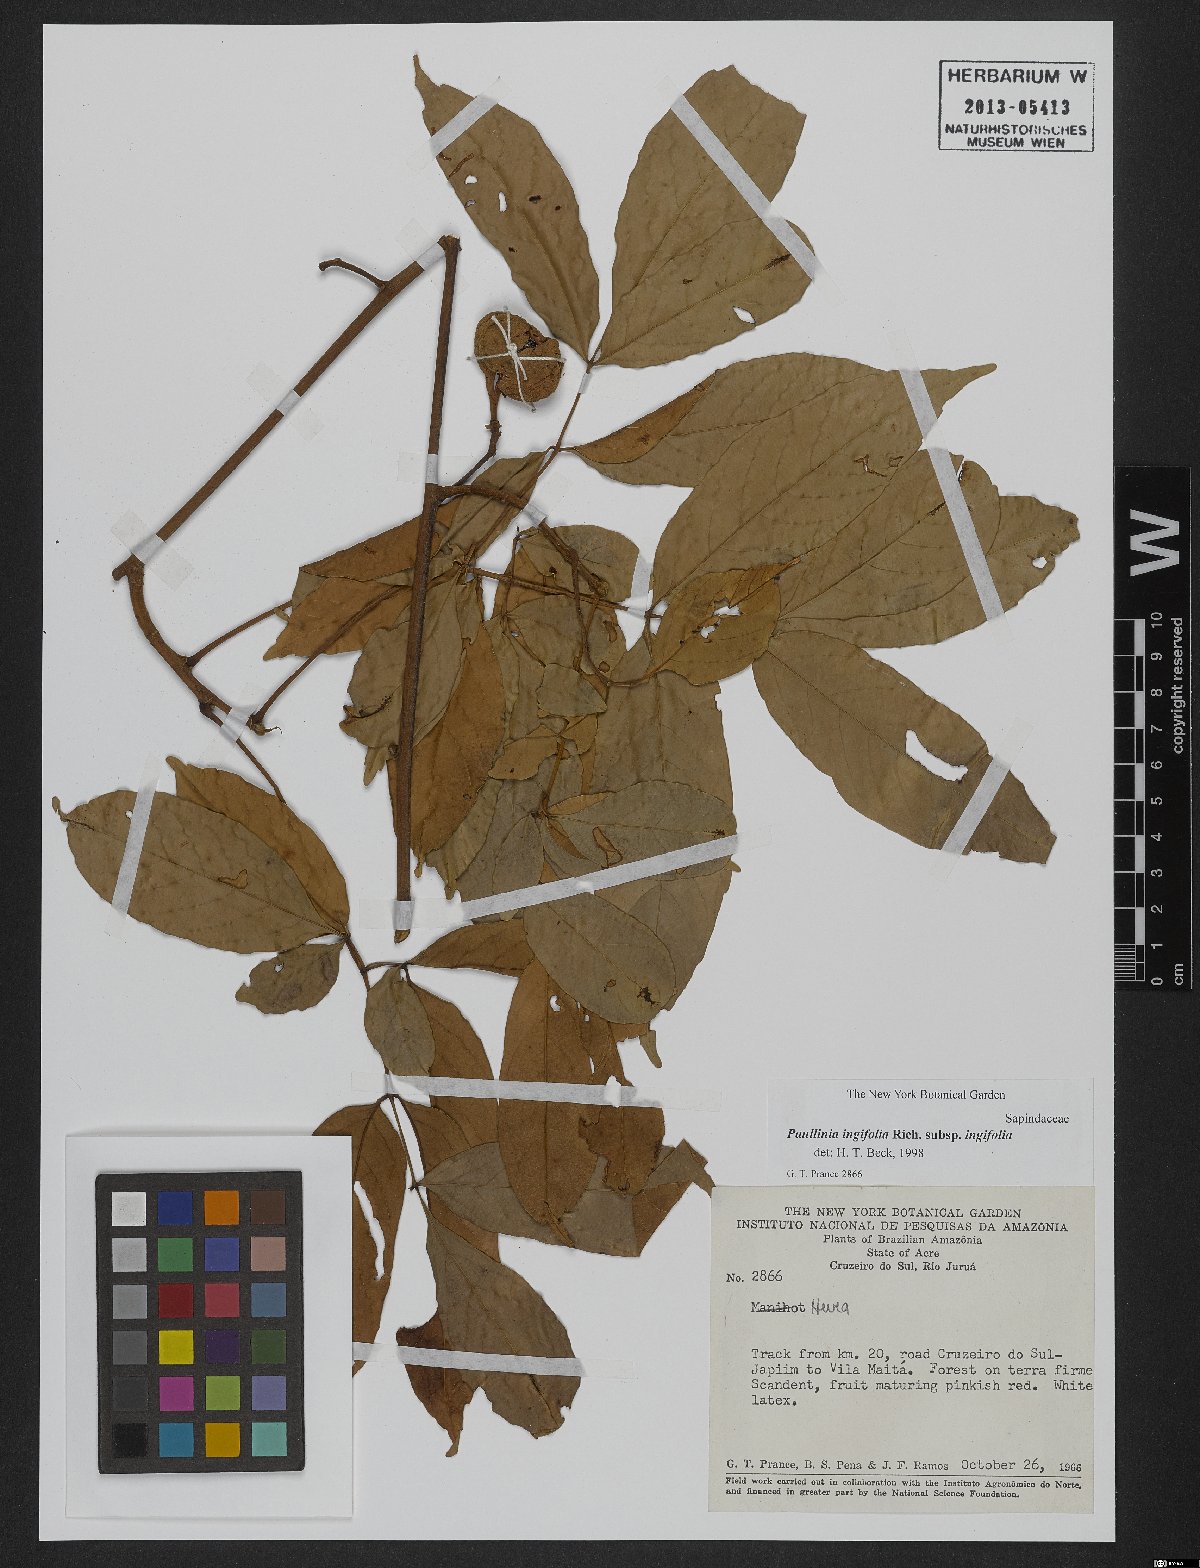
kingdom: Plantae
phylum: Tracheophyta
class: Magnoliopsida
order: Sapindales
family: Sapindaceae
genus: Paullinia
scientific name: Paullinia ingifolia
